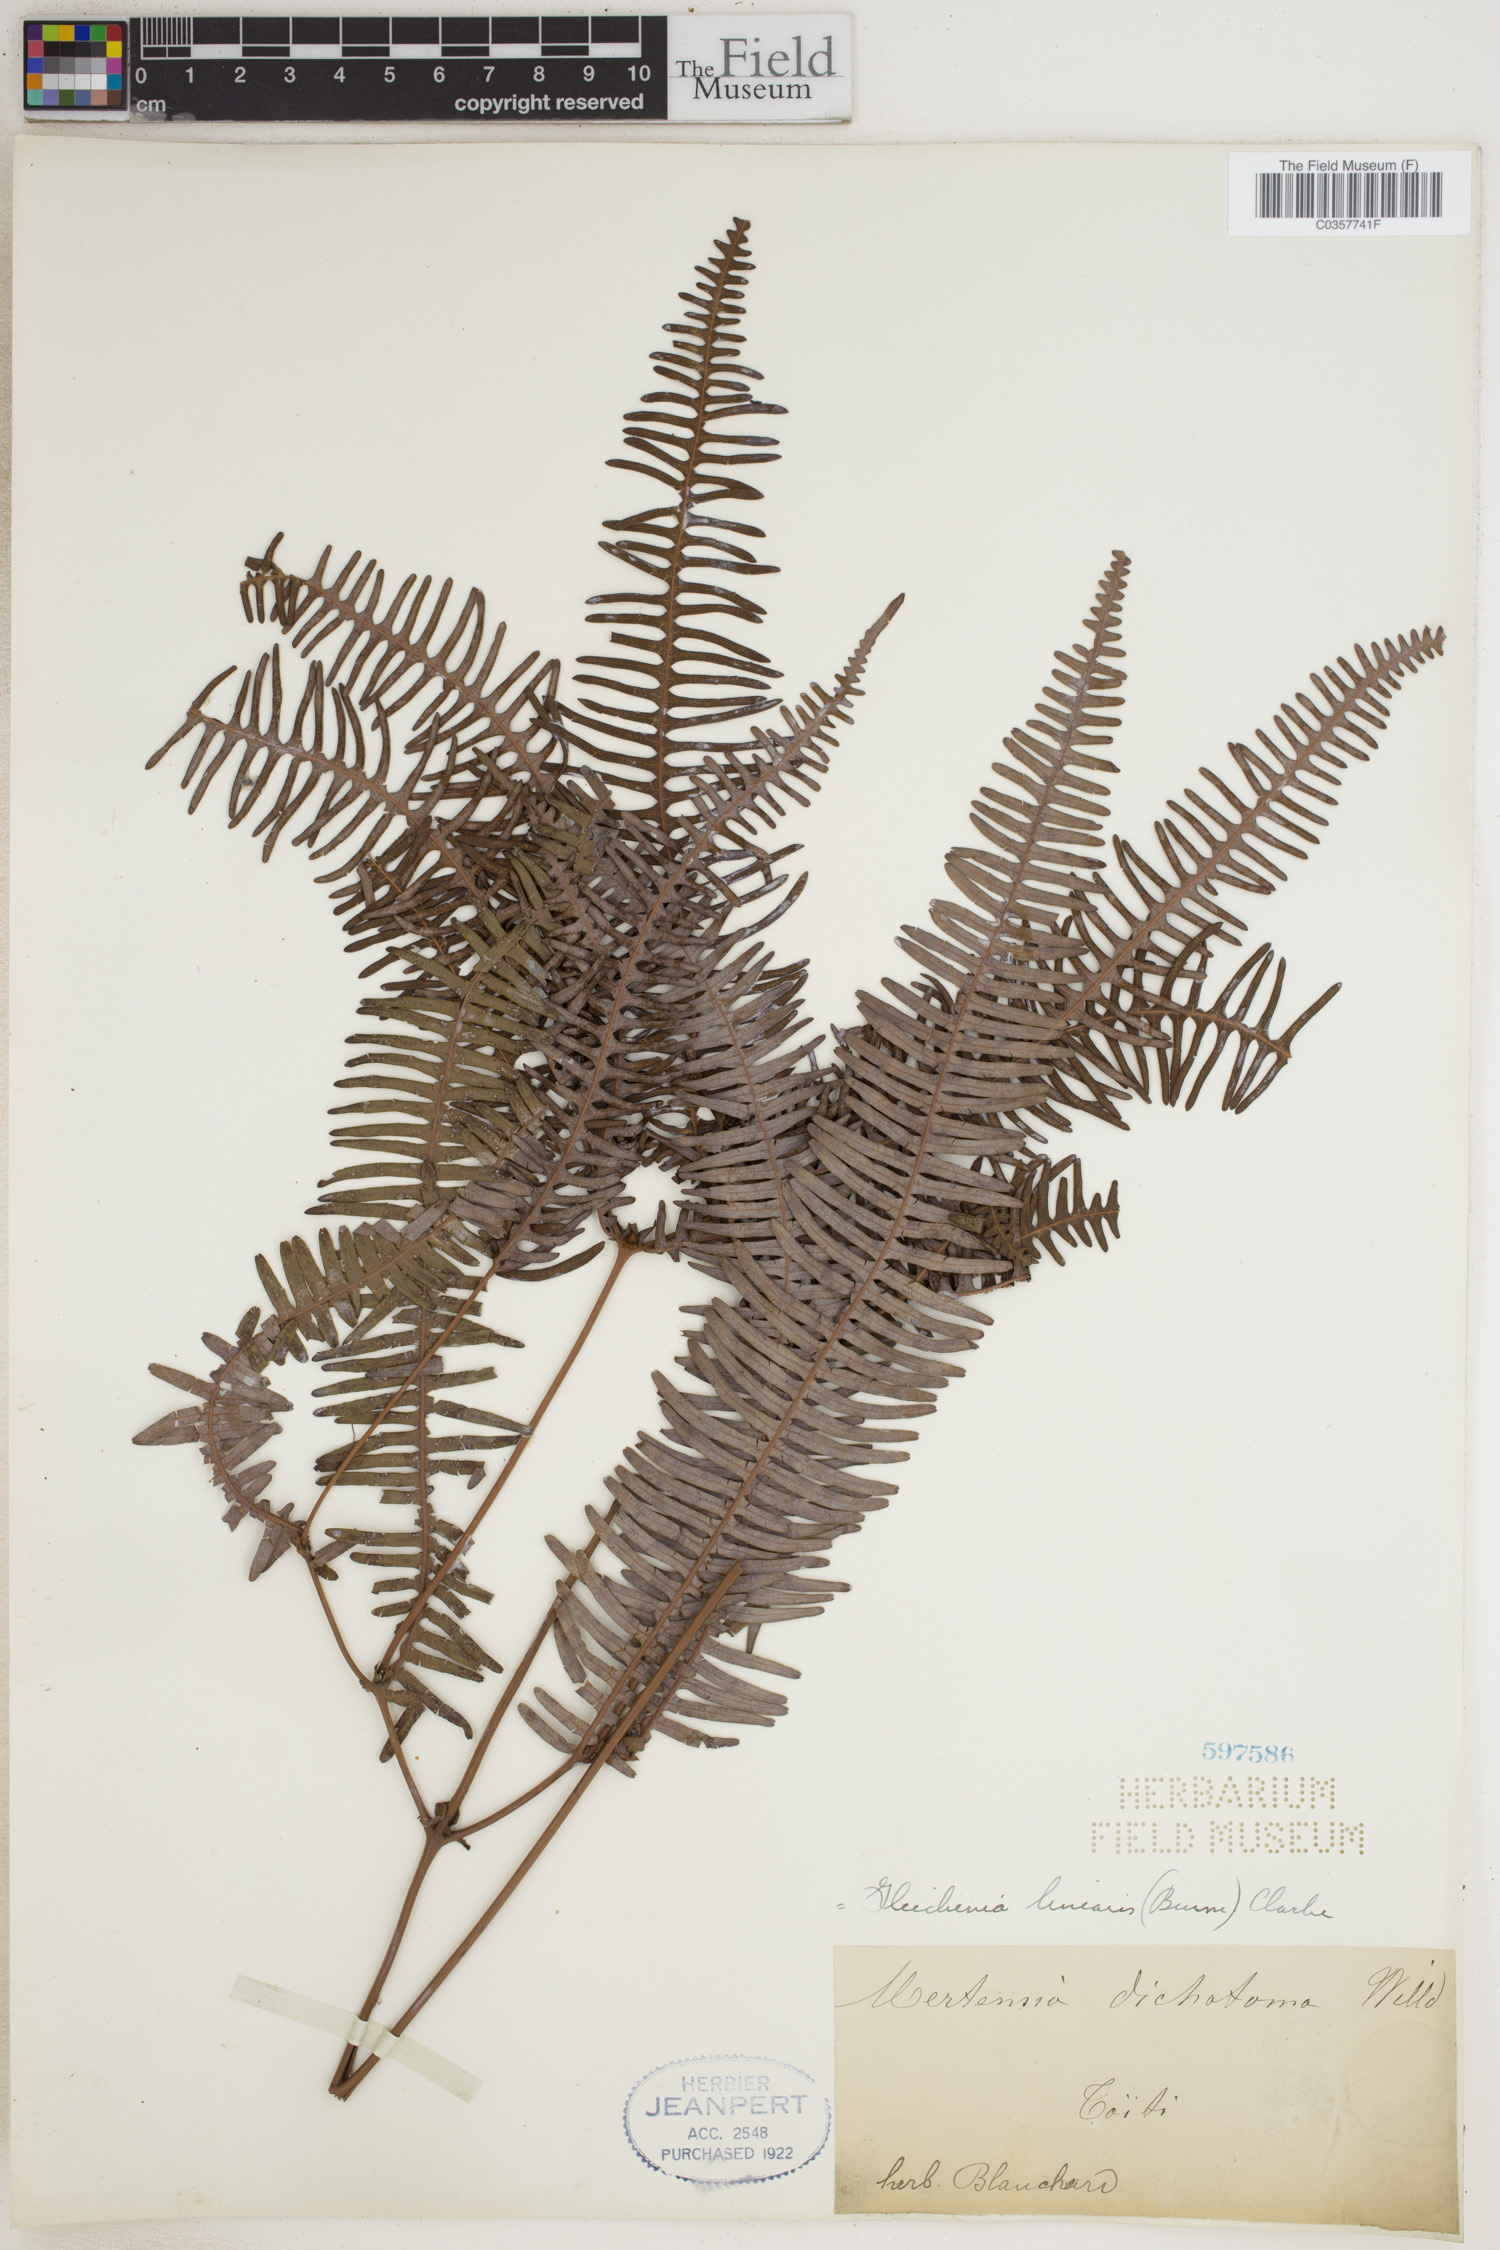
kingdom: Plantae
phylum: Tracheophyta
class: Polypodiopsida
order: Gleicheniales
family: Gleicheniaceae
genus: Dicranopteris
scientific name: Dicranopteris linearis
